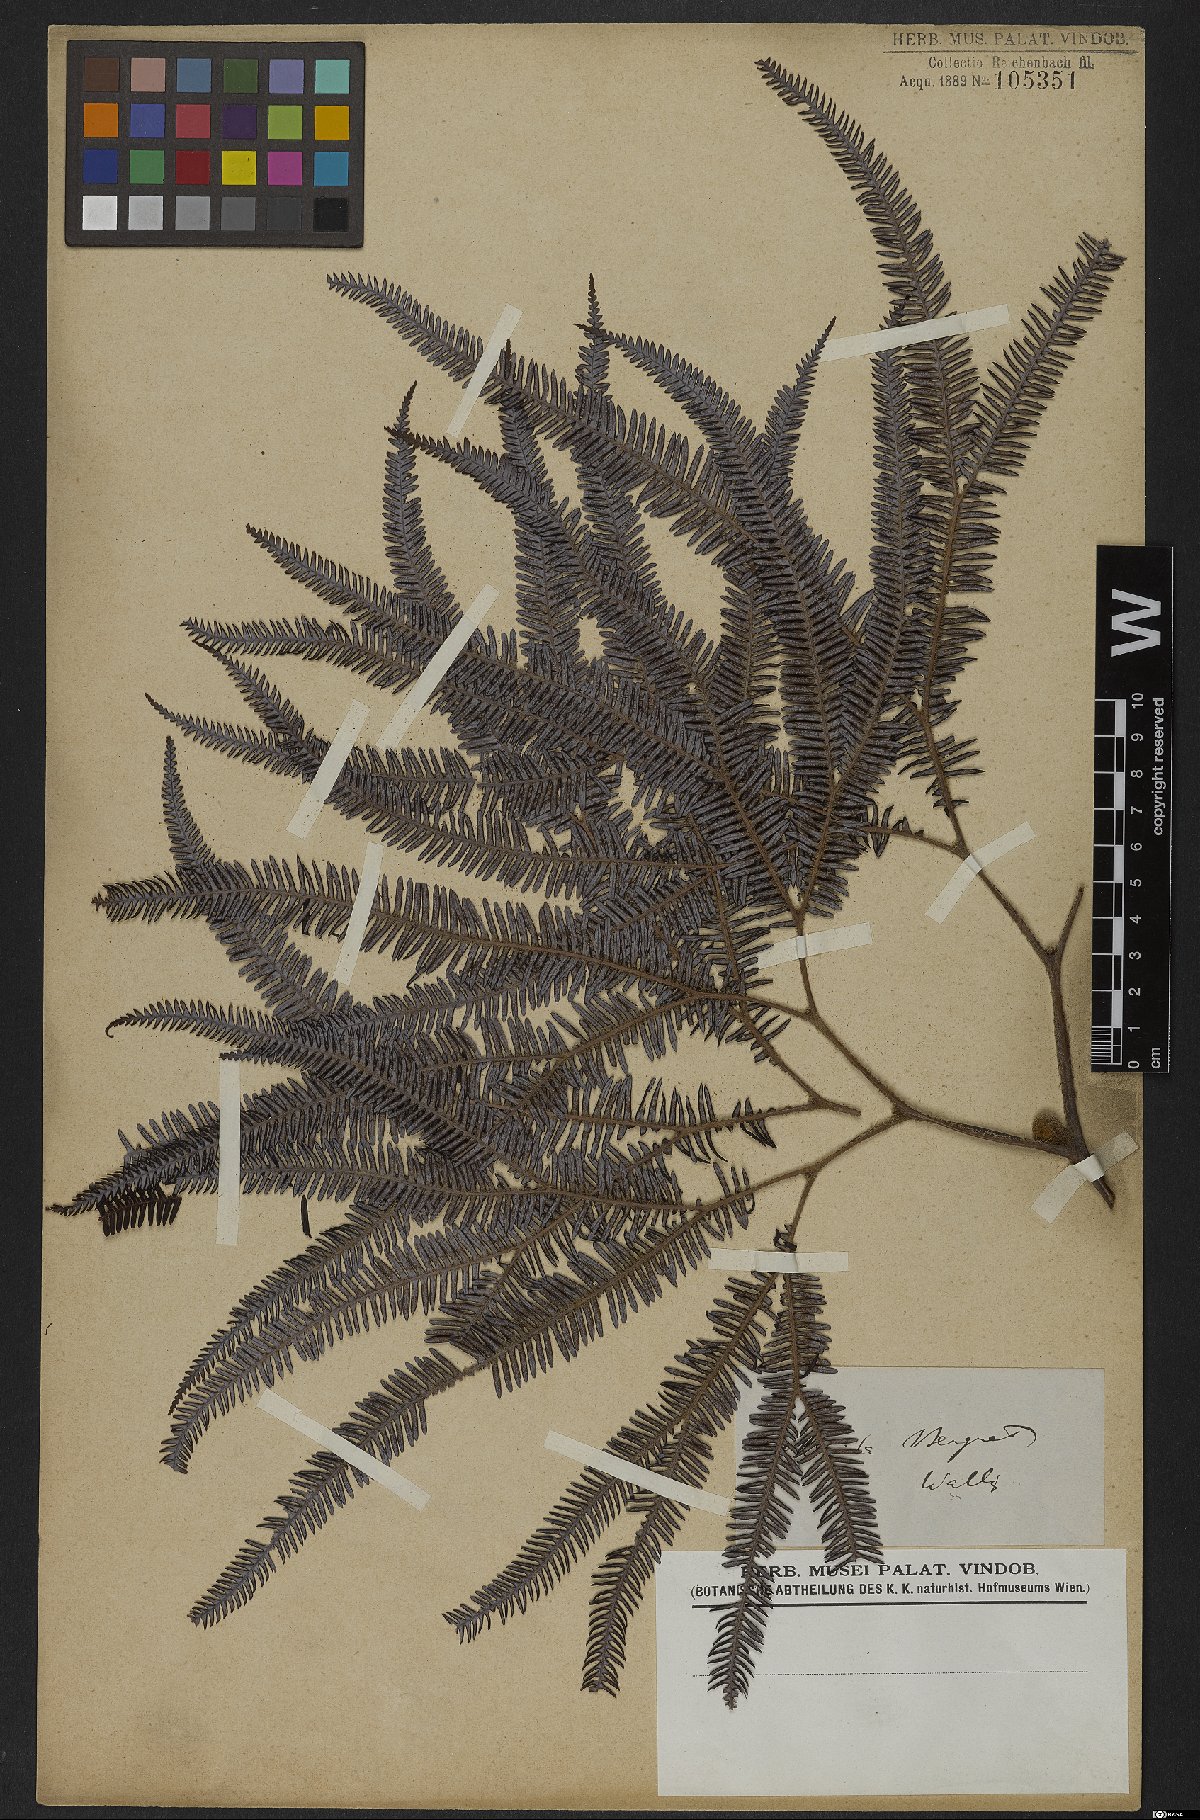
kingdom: Plantae
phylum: Tracheophyta
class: Polypodiopsida
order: Gleicheniales
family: Gleicheniaceae
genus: Gleichenia
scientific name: Gleichenia
